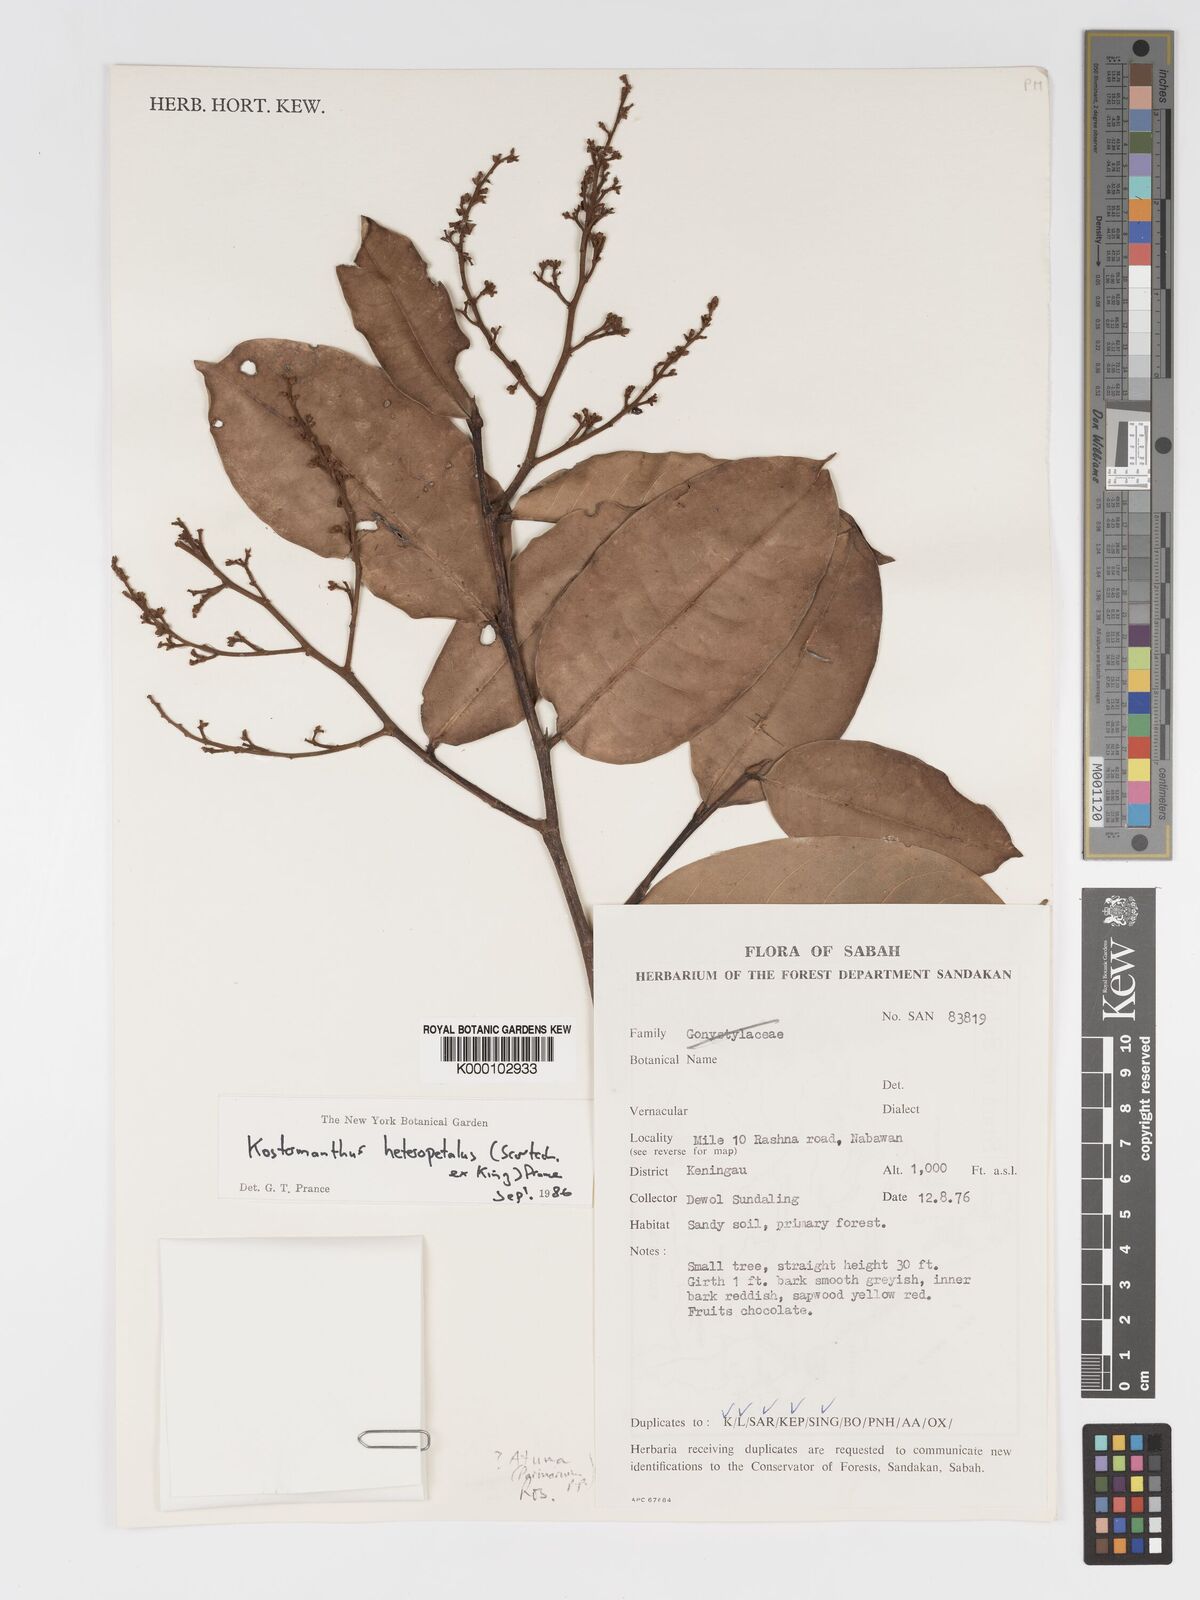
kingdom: Plantae
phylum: Tracheophyta
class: Magnoliopsida
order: Malpighiales
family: Chrysobalanaceae
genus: Kostermanthus
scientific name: Kostermanthus heteropetalus
